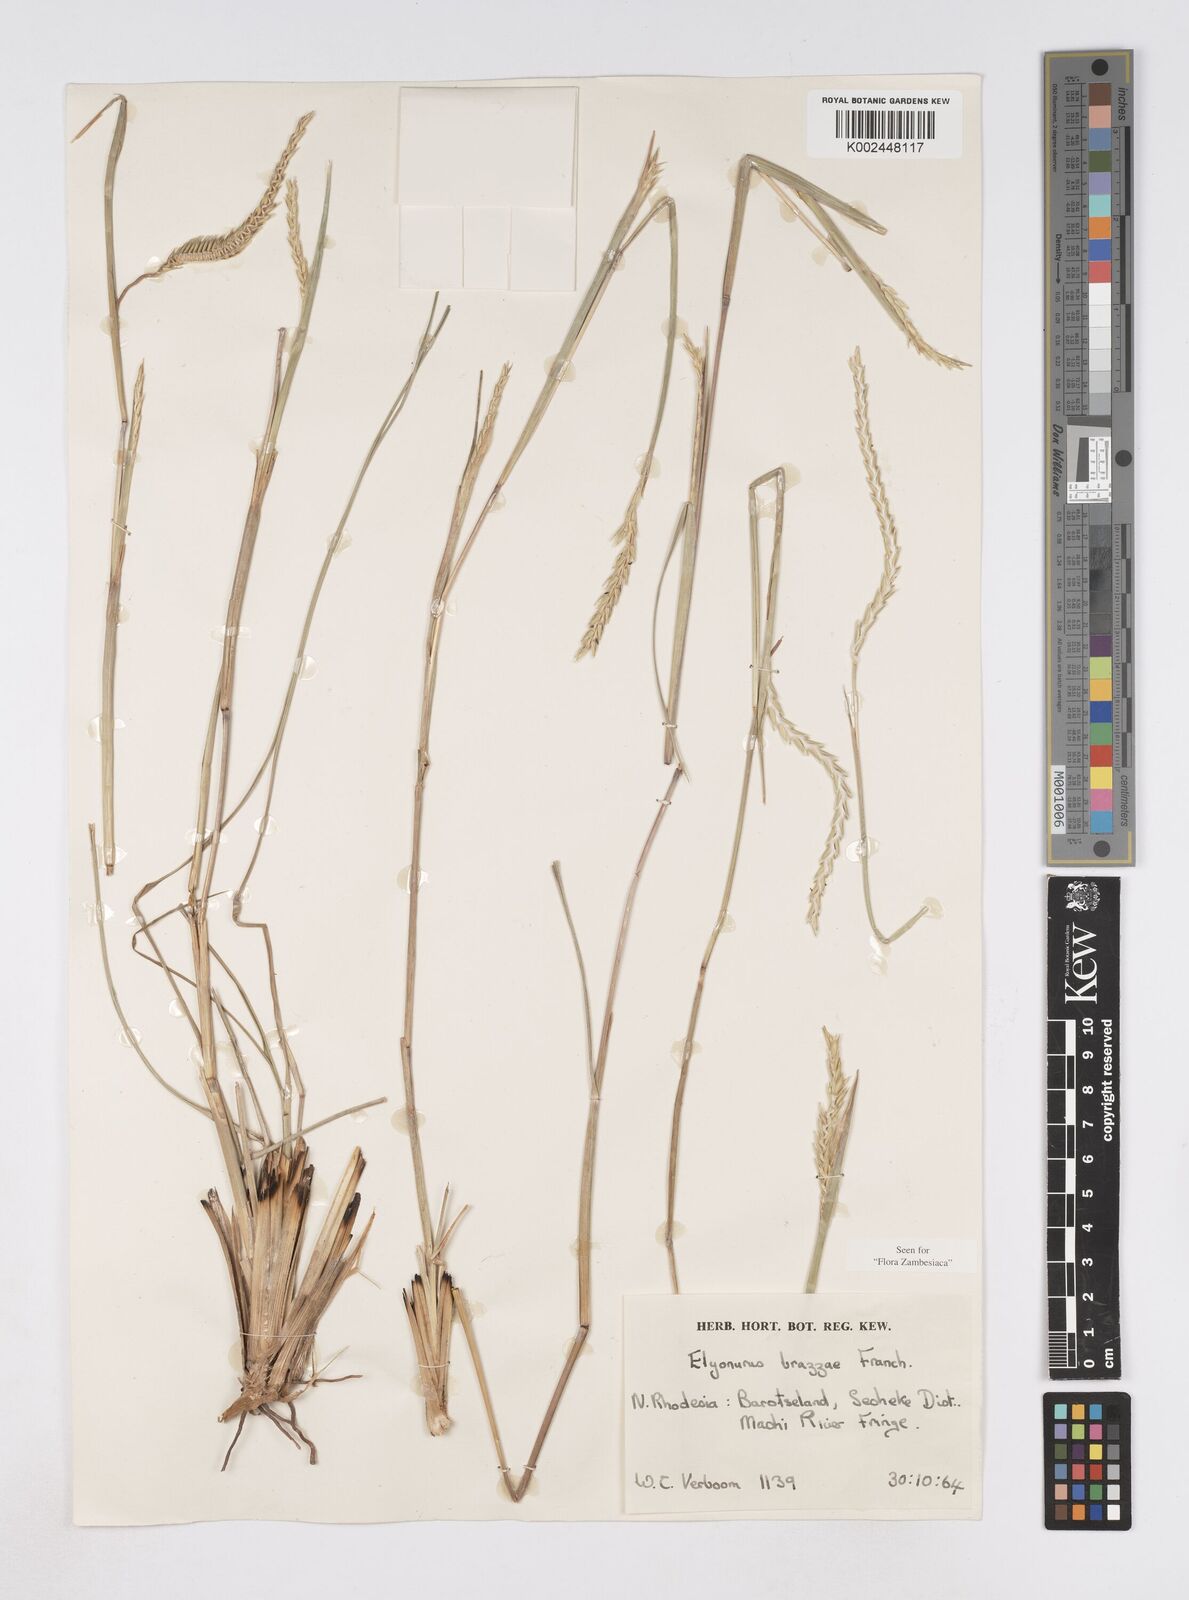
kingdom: Plantae
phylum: Tracheophyta
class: Liliopsida
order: Poales
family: Poaceae
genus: Elionurus
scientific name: Elionurus tripsacoides
